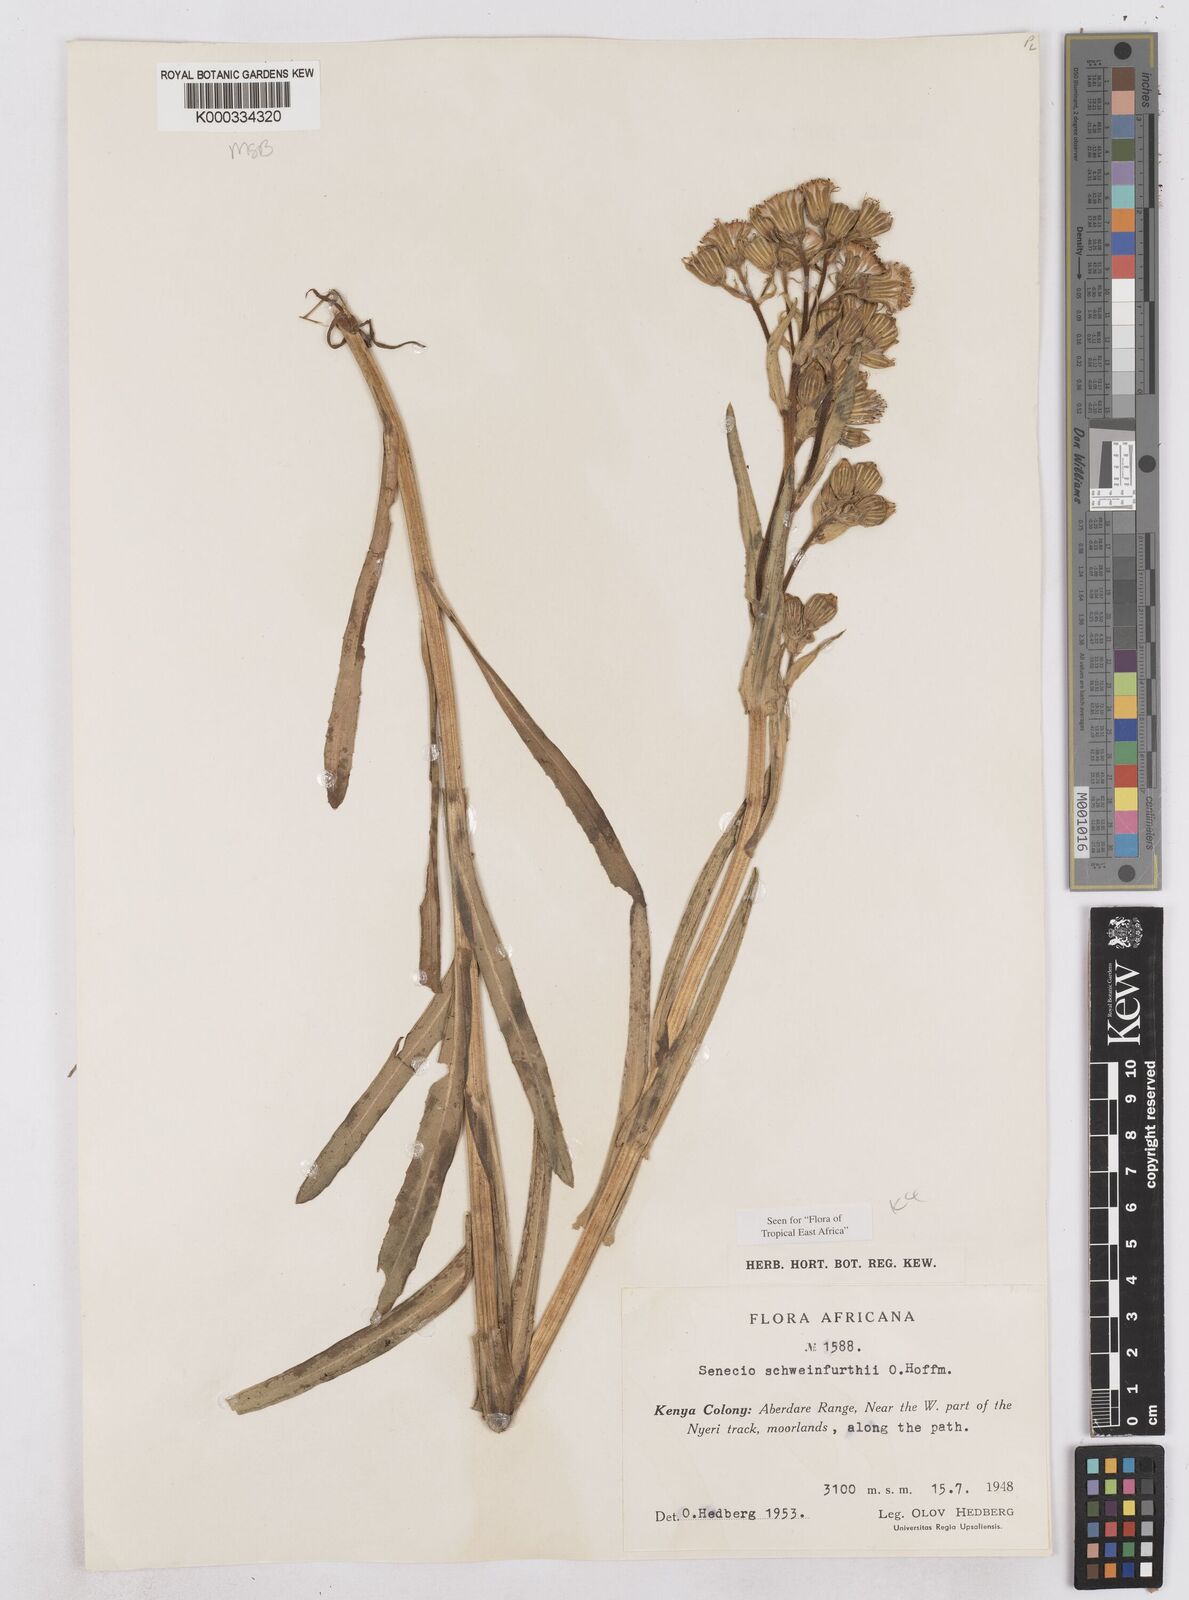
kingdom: Plantae
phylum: Tracheophyta
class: Magnoliopsida
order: Asterales
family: Asteraceae
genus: Senecio
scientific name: Senecio schweinfurthii
